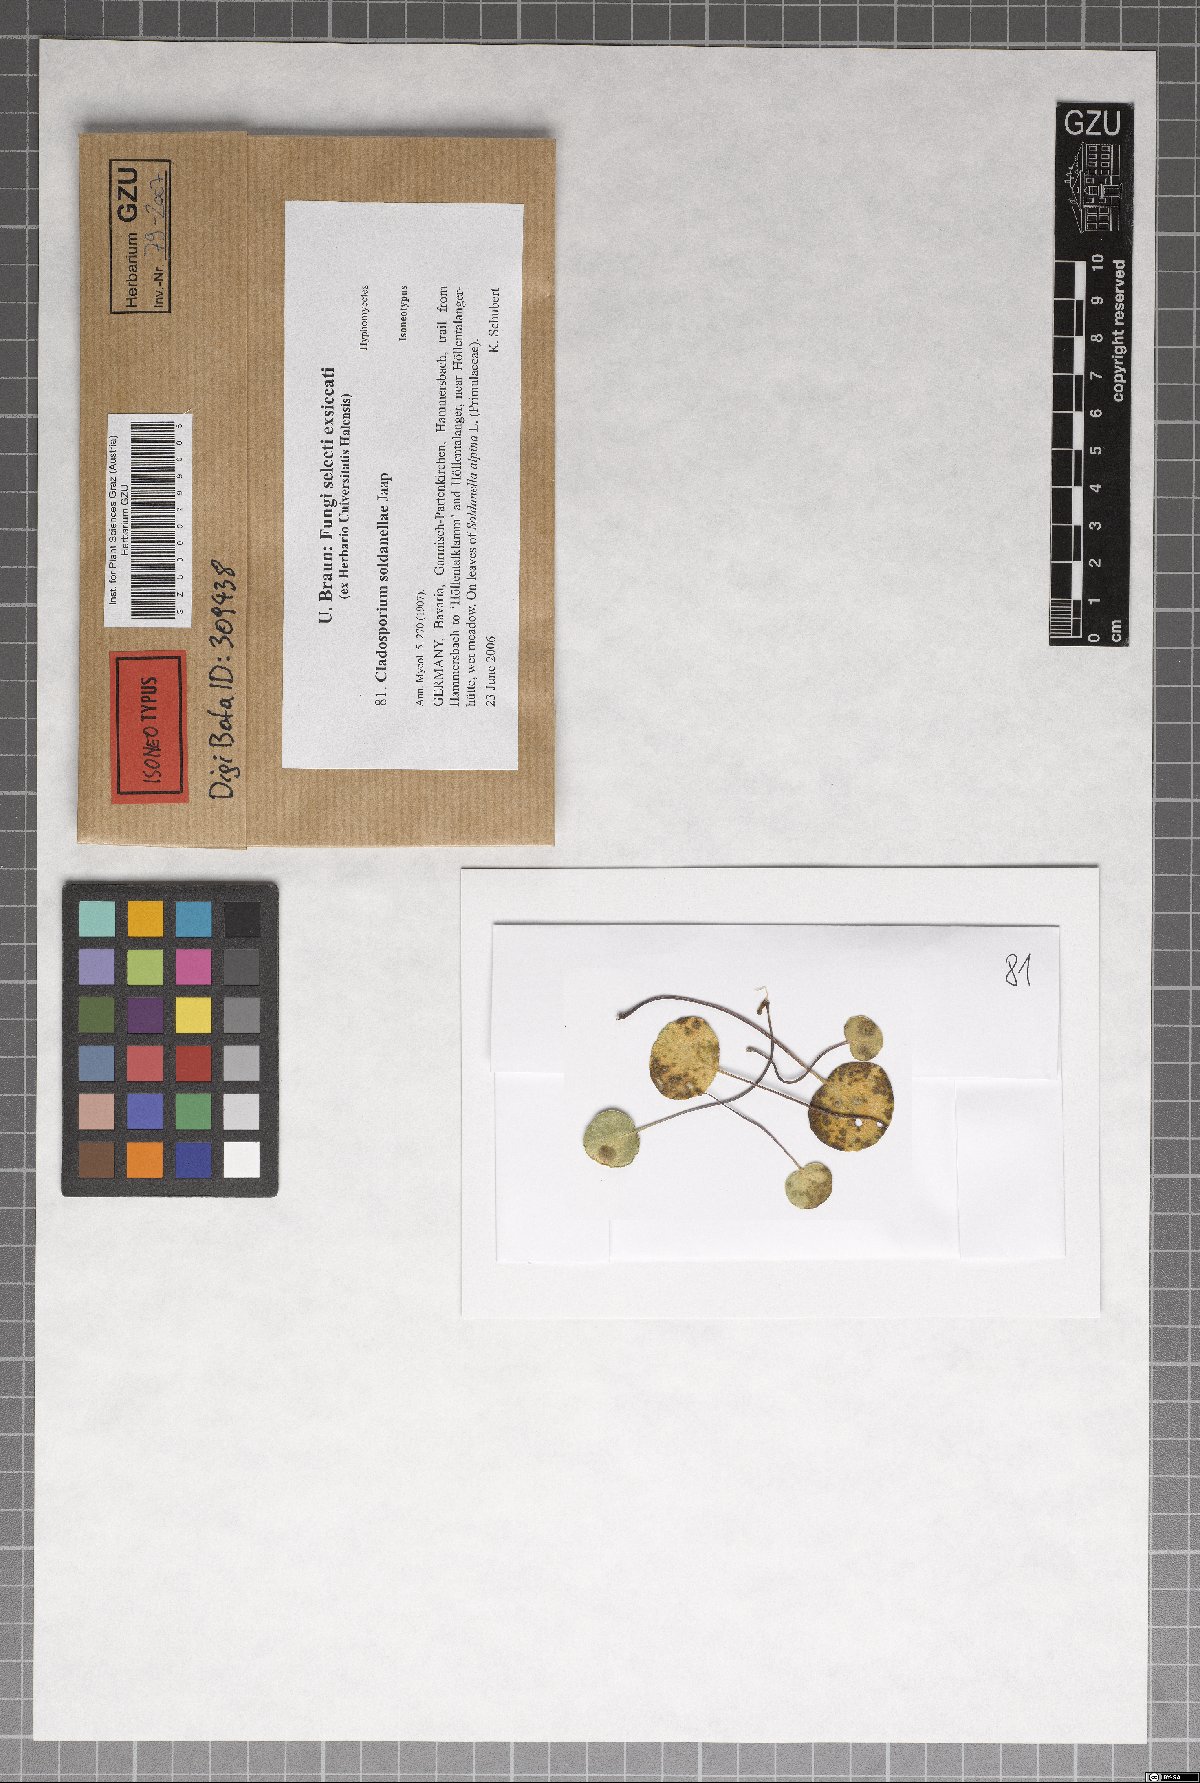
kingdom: Fungi
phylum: Ascomycota
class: Dothideomycetes
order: Capnodiales
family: Cladosporiaceae
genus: Cladosporium
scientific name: Cladosporium soldanellae
